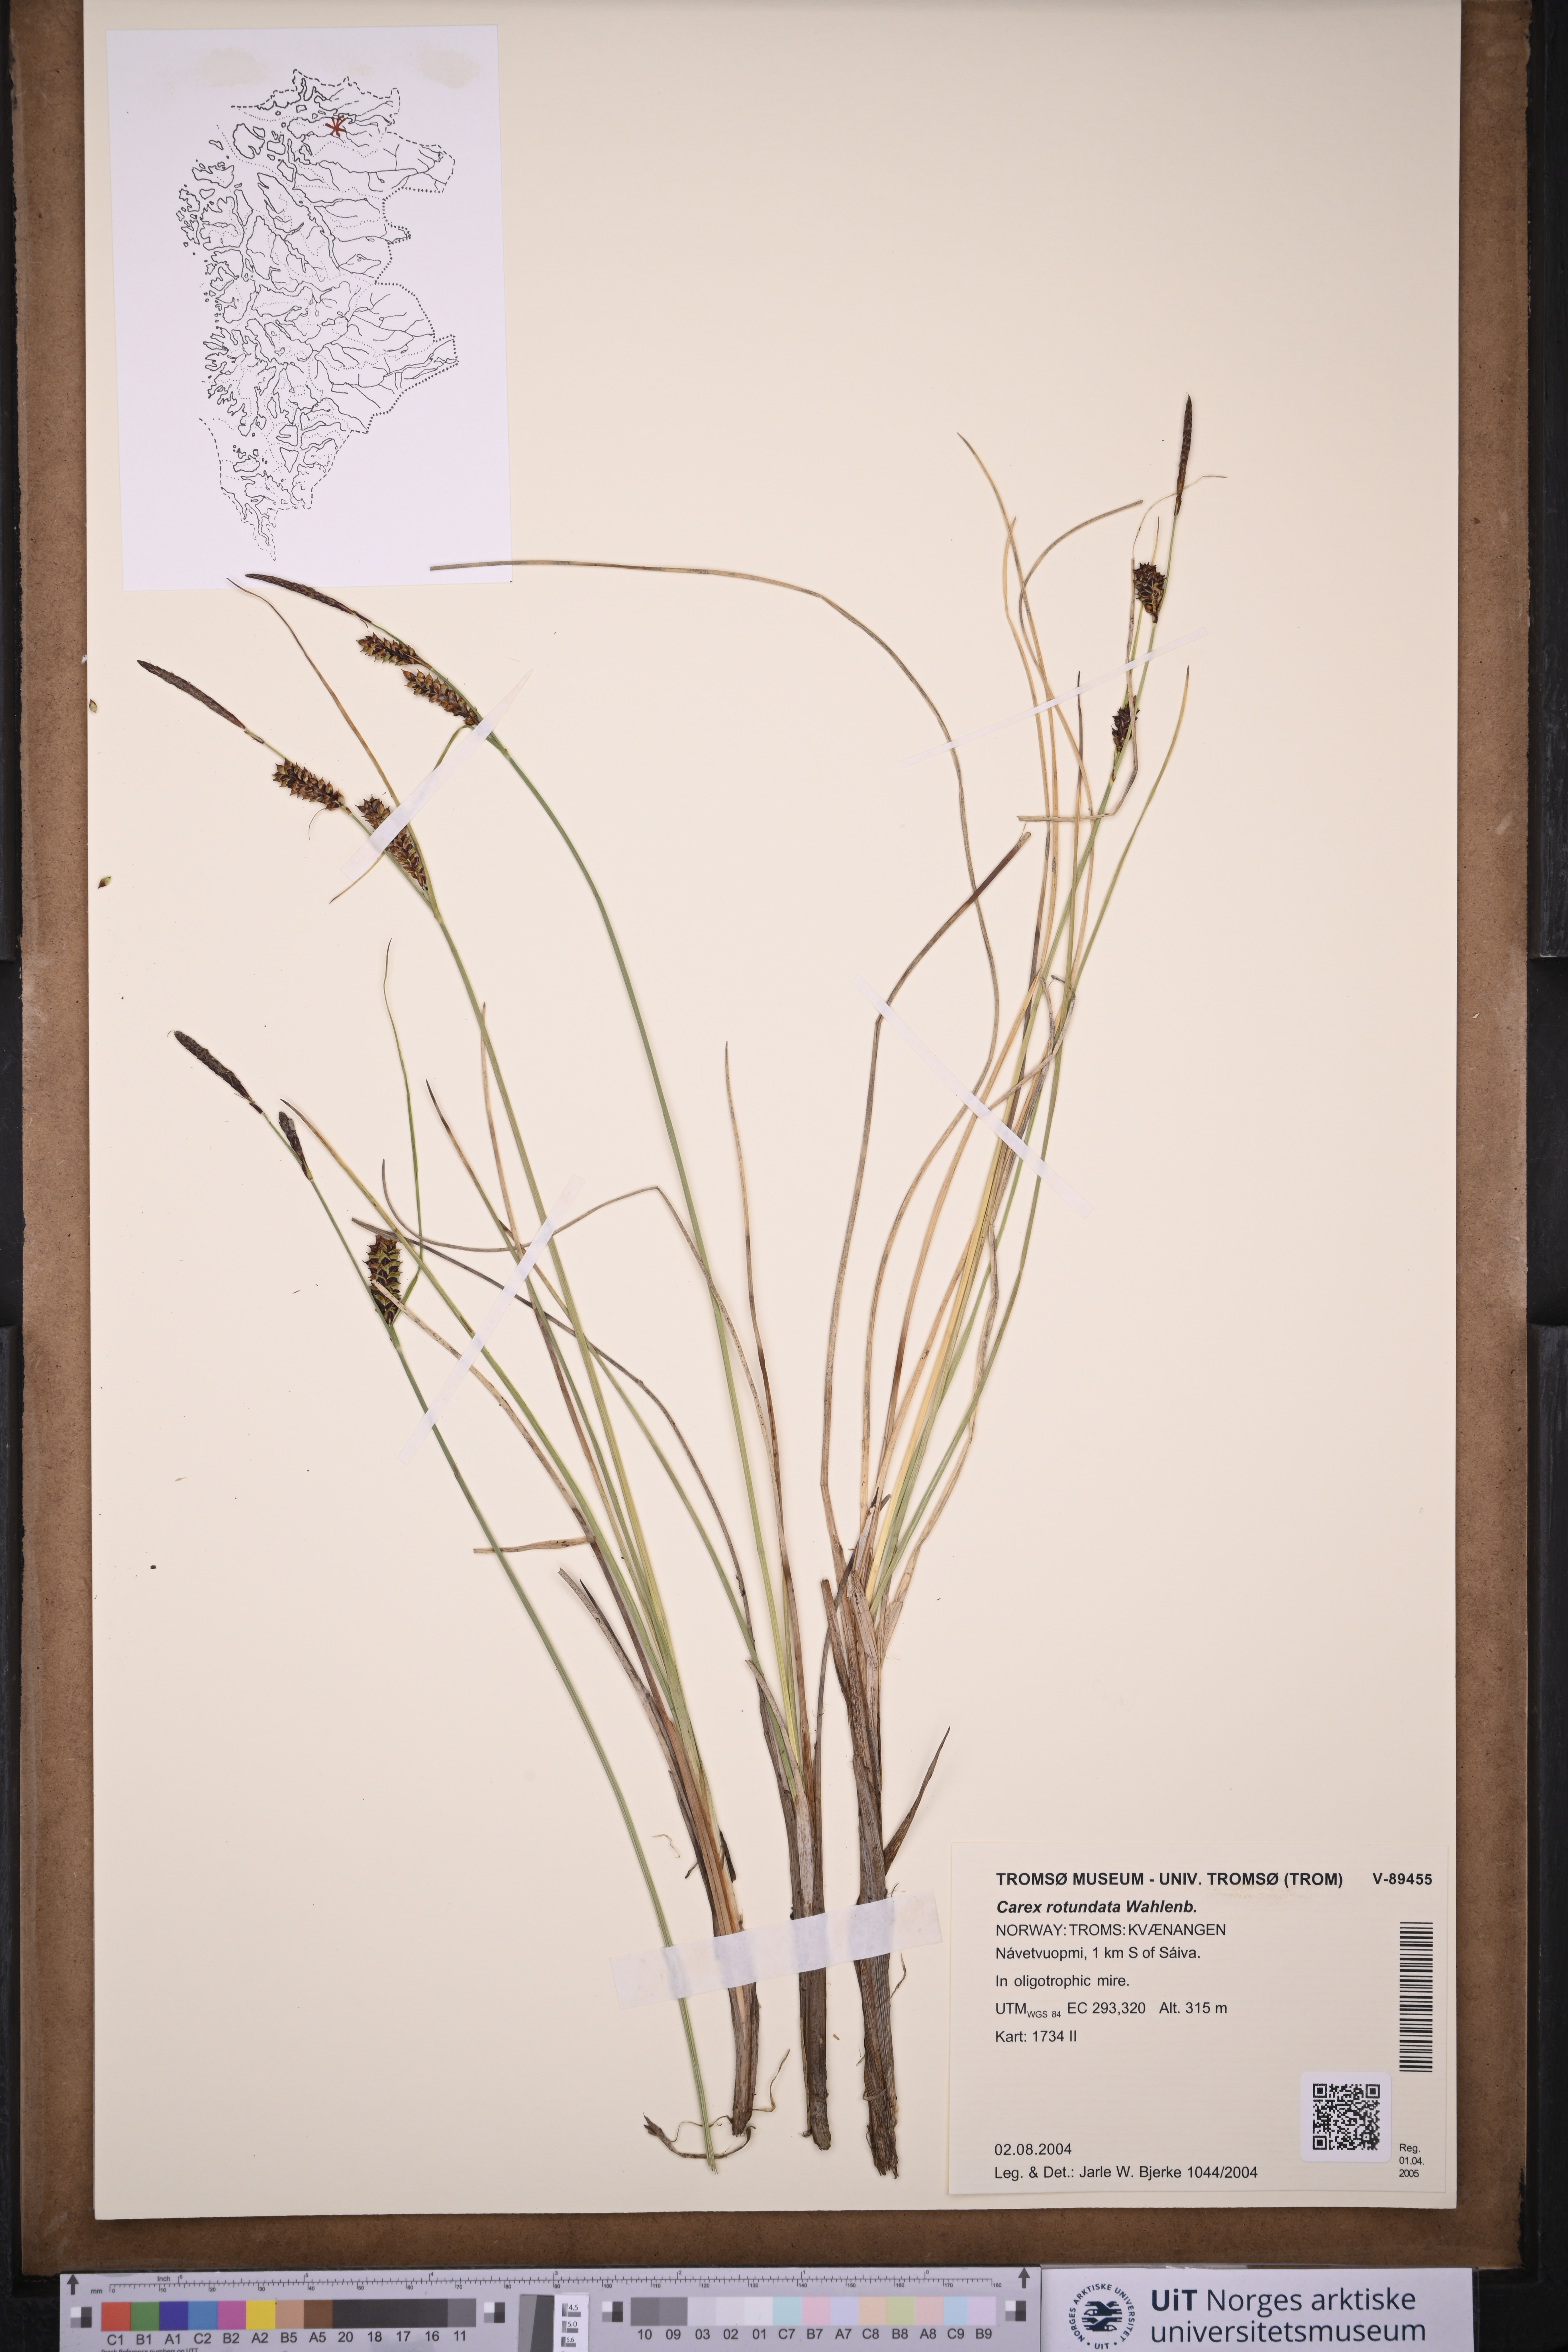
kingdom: Plantae
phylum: Tracheophyta
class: Liliopsida
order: Poales
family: Cyperaceae
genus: Carex
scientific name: Carex rotundata
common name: Round-fruited sedge
